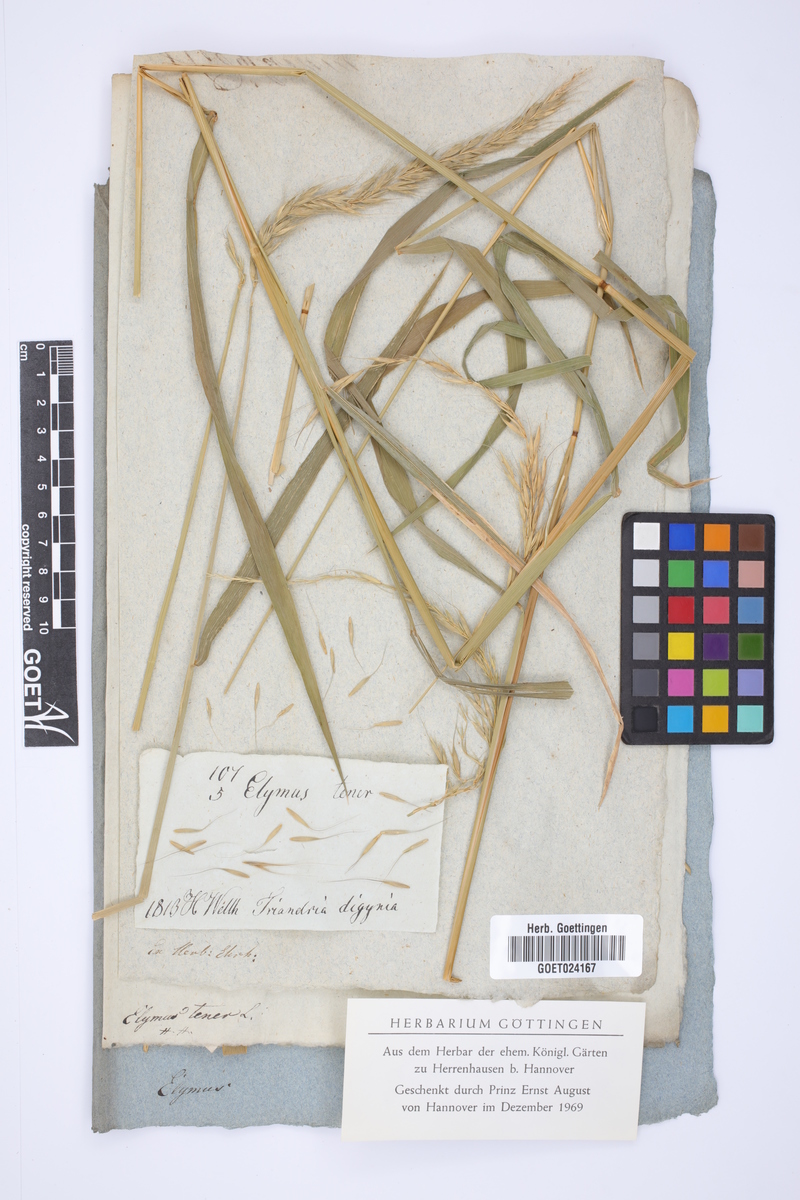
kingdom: Plantae
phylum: Tracheophyta
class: Liliopsida
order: Poales
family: Poaceae
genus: Elymus
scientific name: Elymus sibiricus
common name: Siberian wildrye
